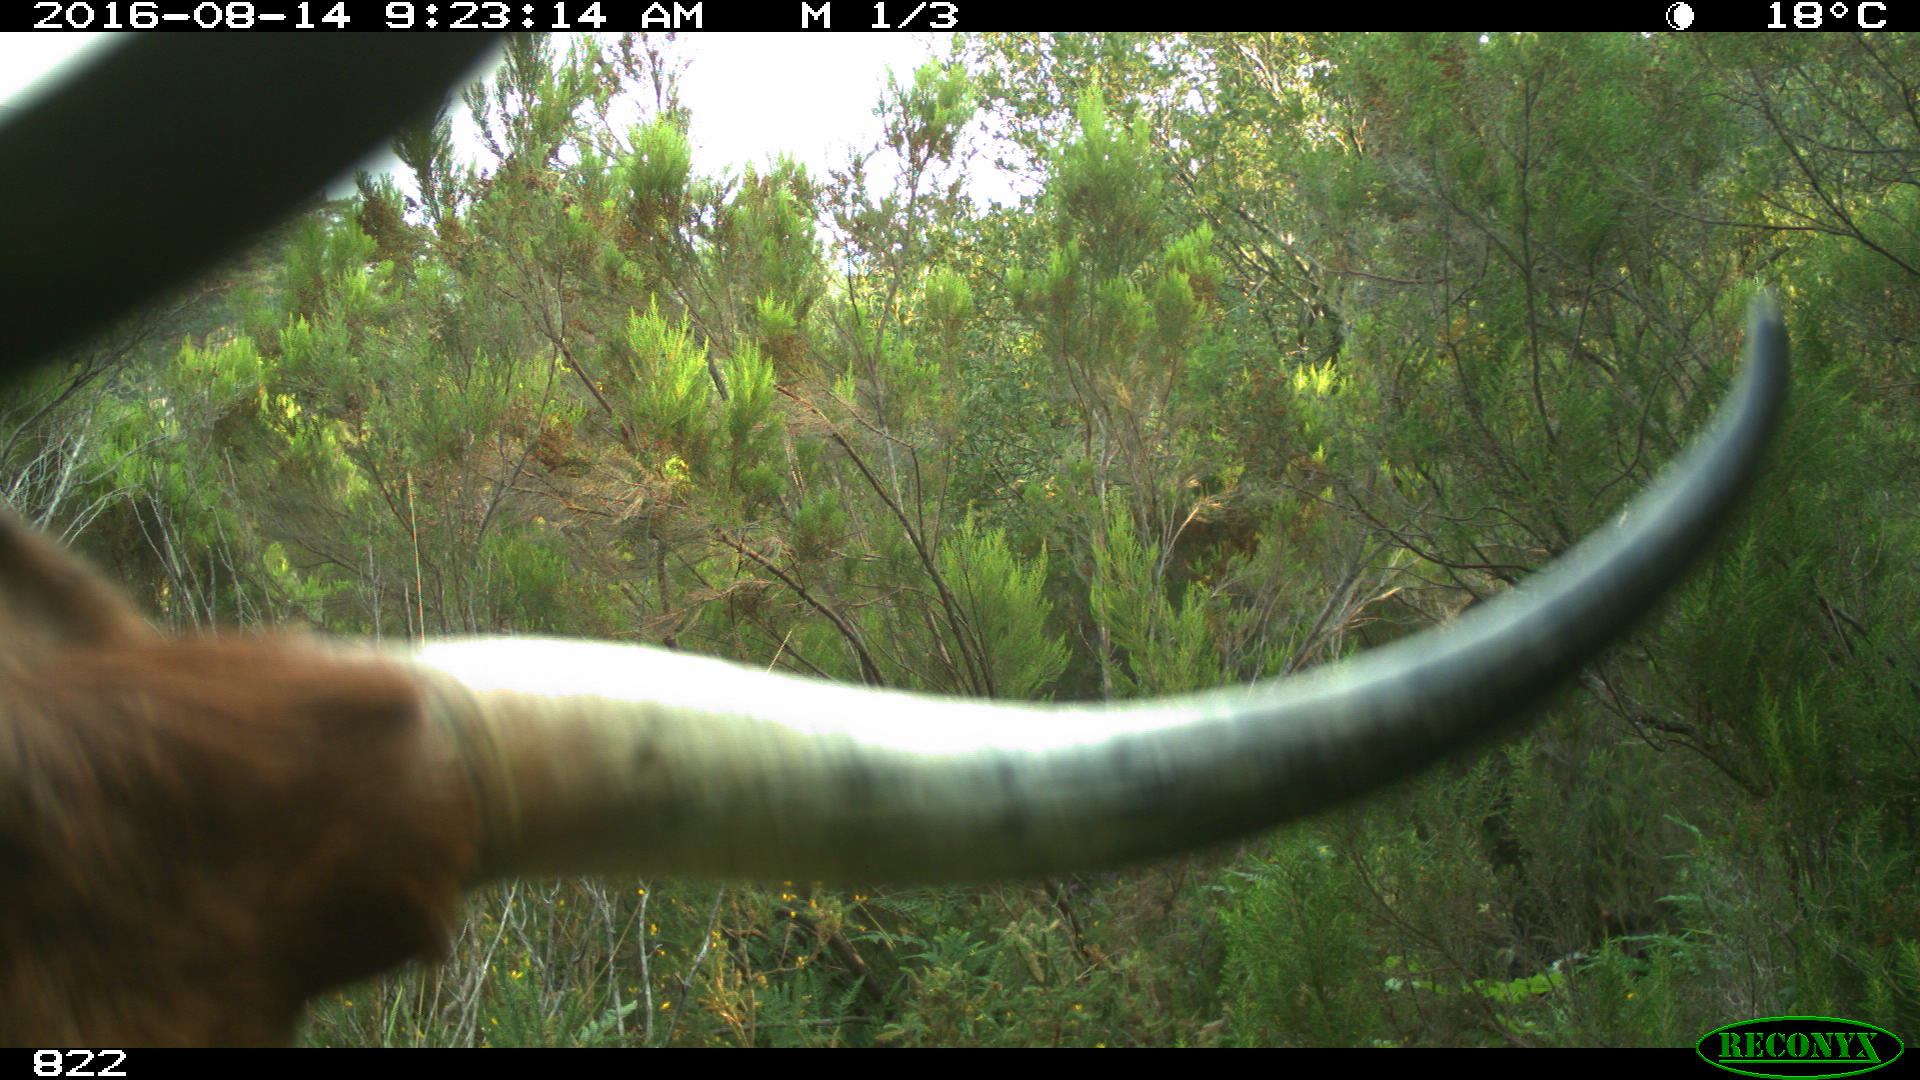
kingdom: Animalia
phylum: Chordata
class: Mammalia
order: Artiodactyla
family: Bovidae
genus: Bos
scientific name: Bos taurus
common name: Domesticated cattle
